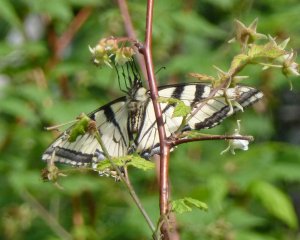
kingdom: Animalia
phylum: Arthropoda
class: Insecta
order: Lepidoptera
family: Papilionidae
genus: Pterourus
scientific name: Pterourus canadensis
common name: Canadian Tiger Swallowtail
